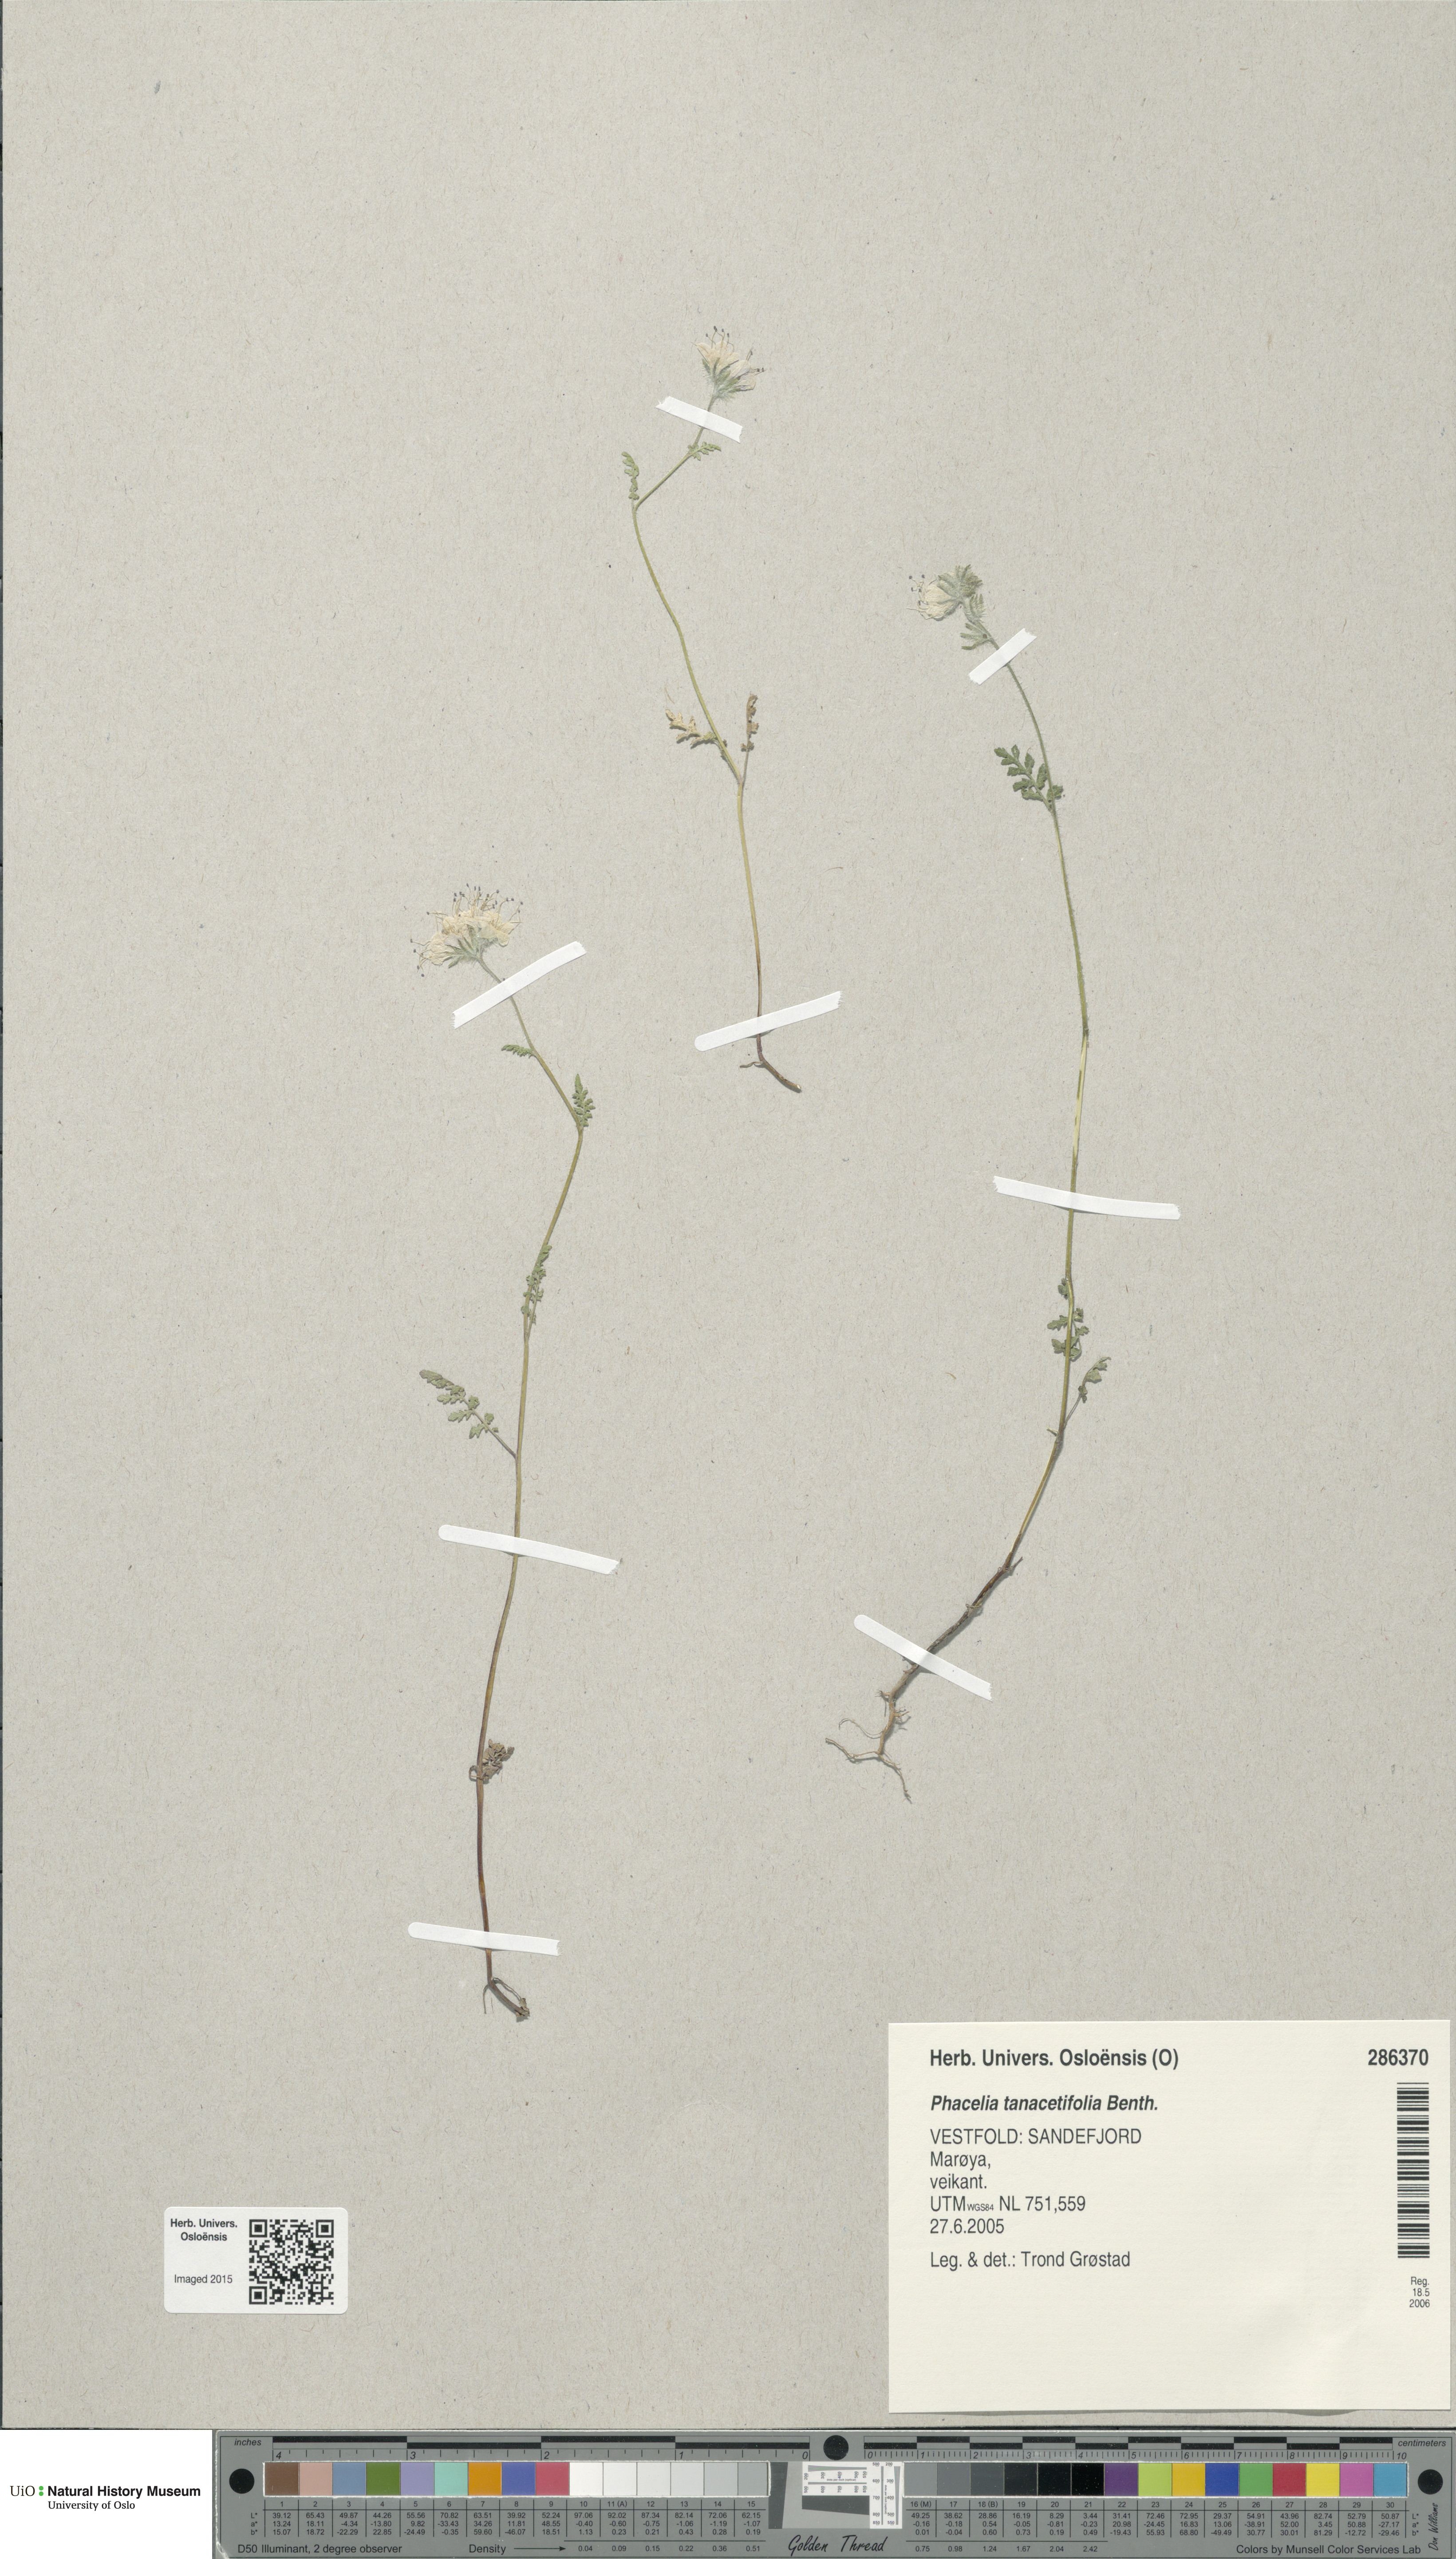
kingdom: Plantae
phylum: Tracheophyta
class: Magnoliopsida
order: Boraginales
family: Hydrophyllaceae
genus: Phacelia
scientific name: Phacelia tanacetifolia
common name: Phacelia
